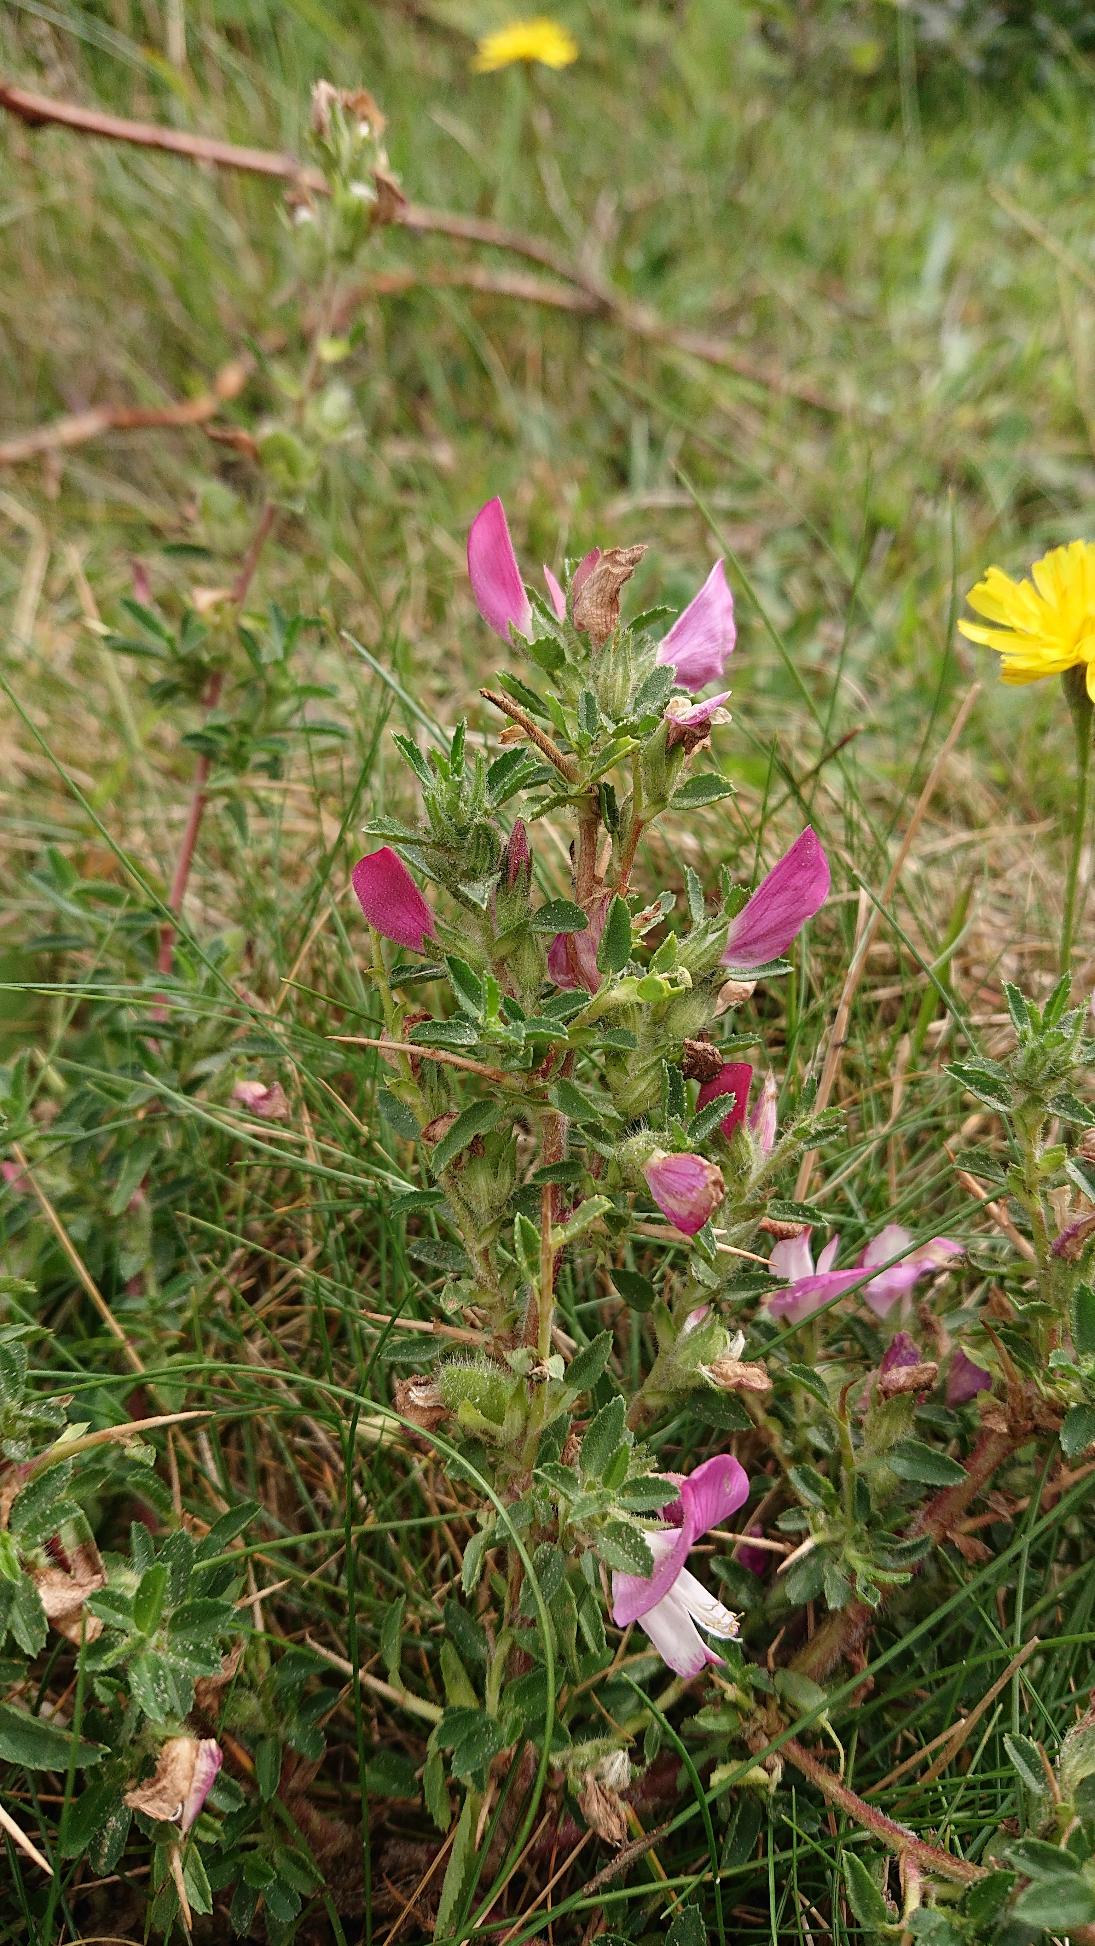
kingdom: Plantae
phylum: Tracheophyta
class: Magnoliopsida
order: Fabales
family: Fabaceae
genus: Ononis
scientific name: Ononis spinosa
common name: Strand-krageklo
